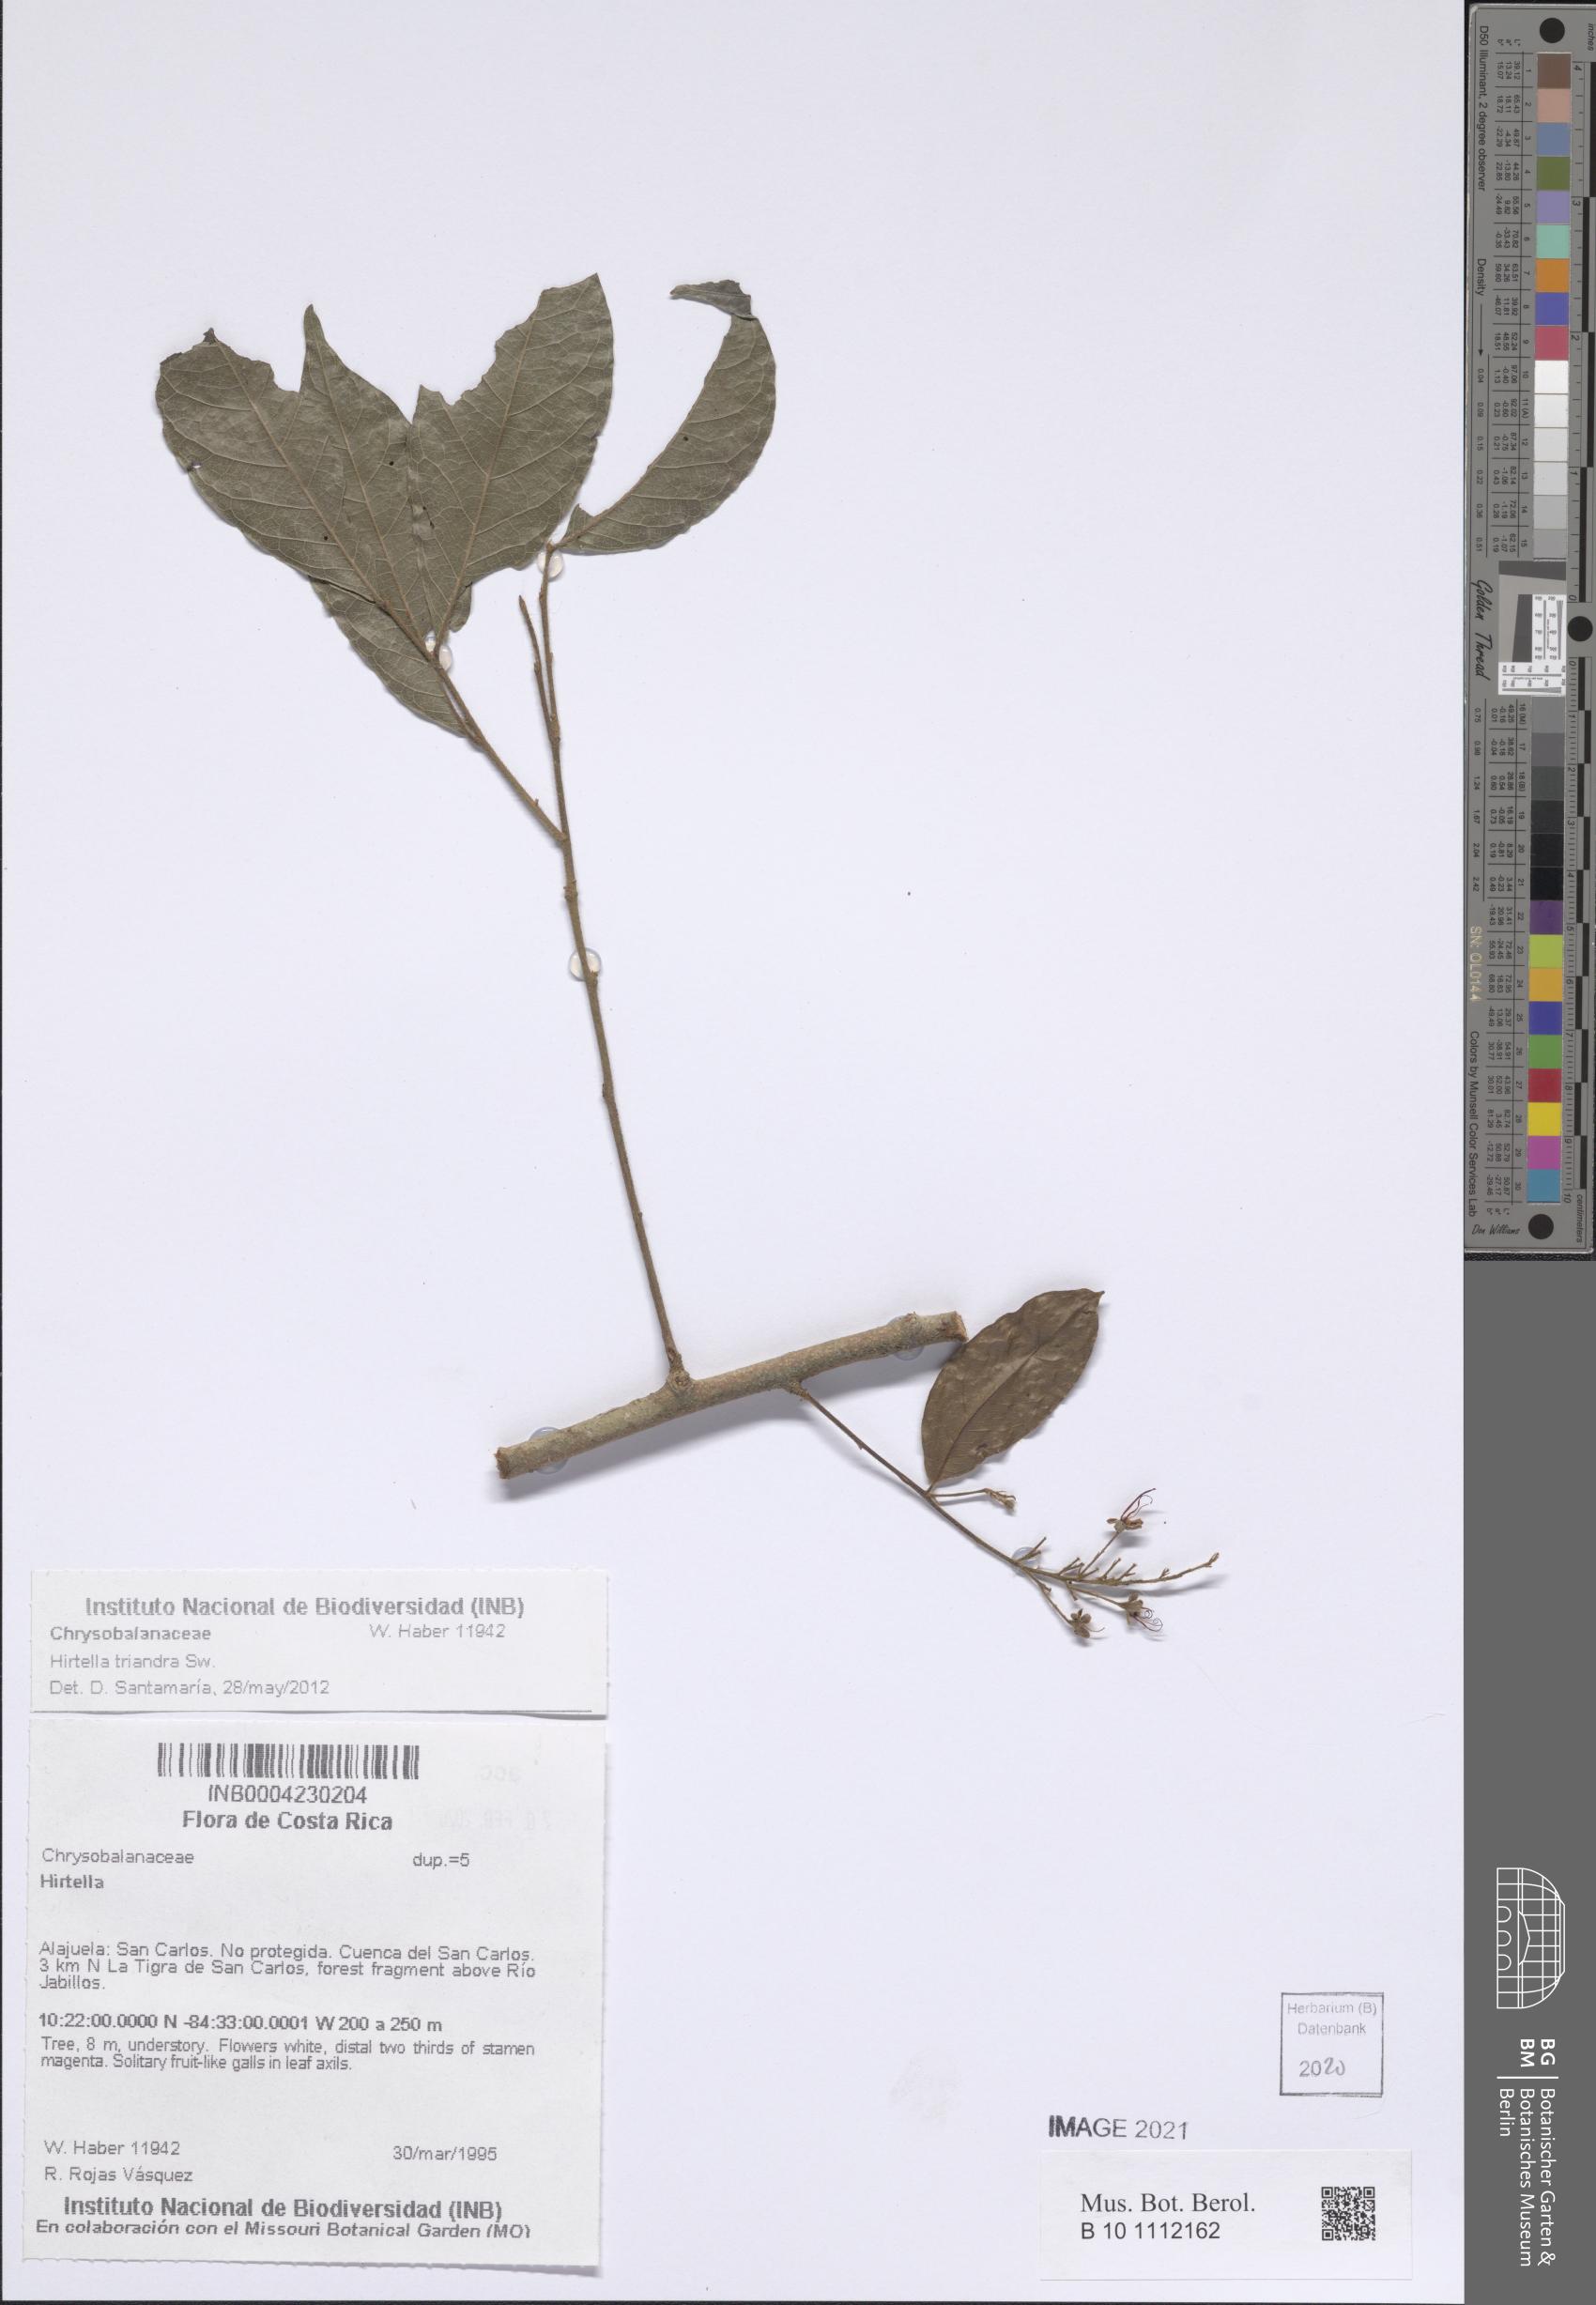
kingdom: Plantae
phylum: Tracheophyta
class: Magnoliopsida
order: Malpighiales
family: Chrysobalanaceae
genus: Hirtella
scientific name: Hirtella triandra
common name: Hairy plum
